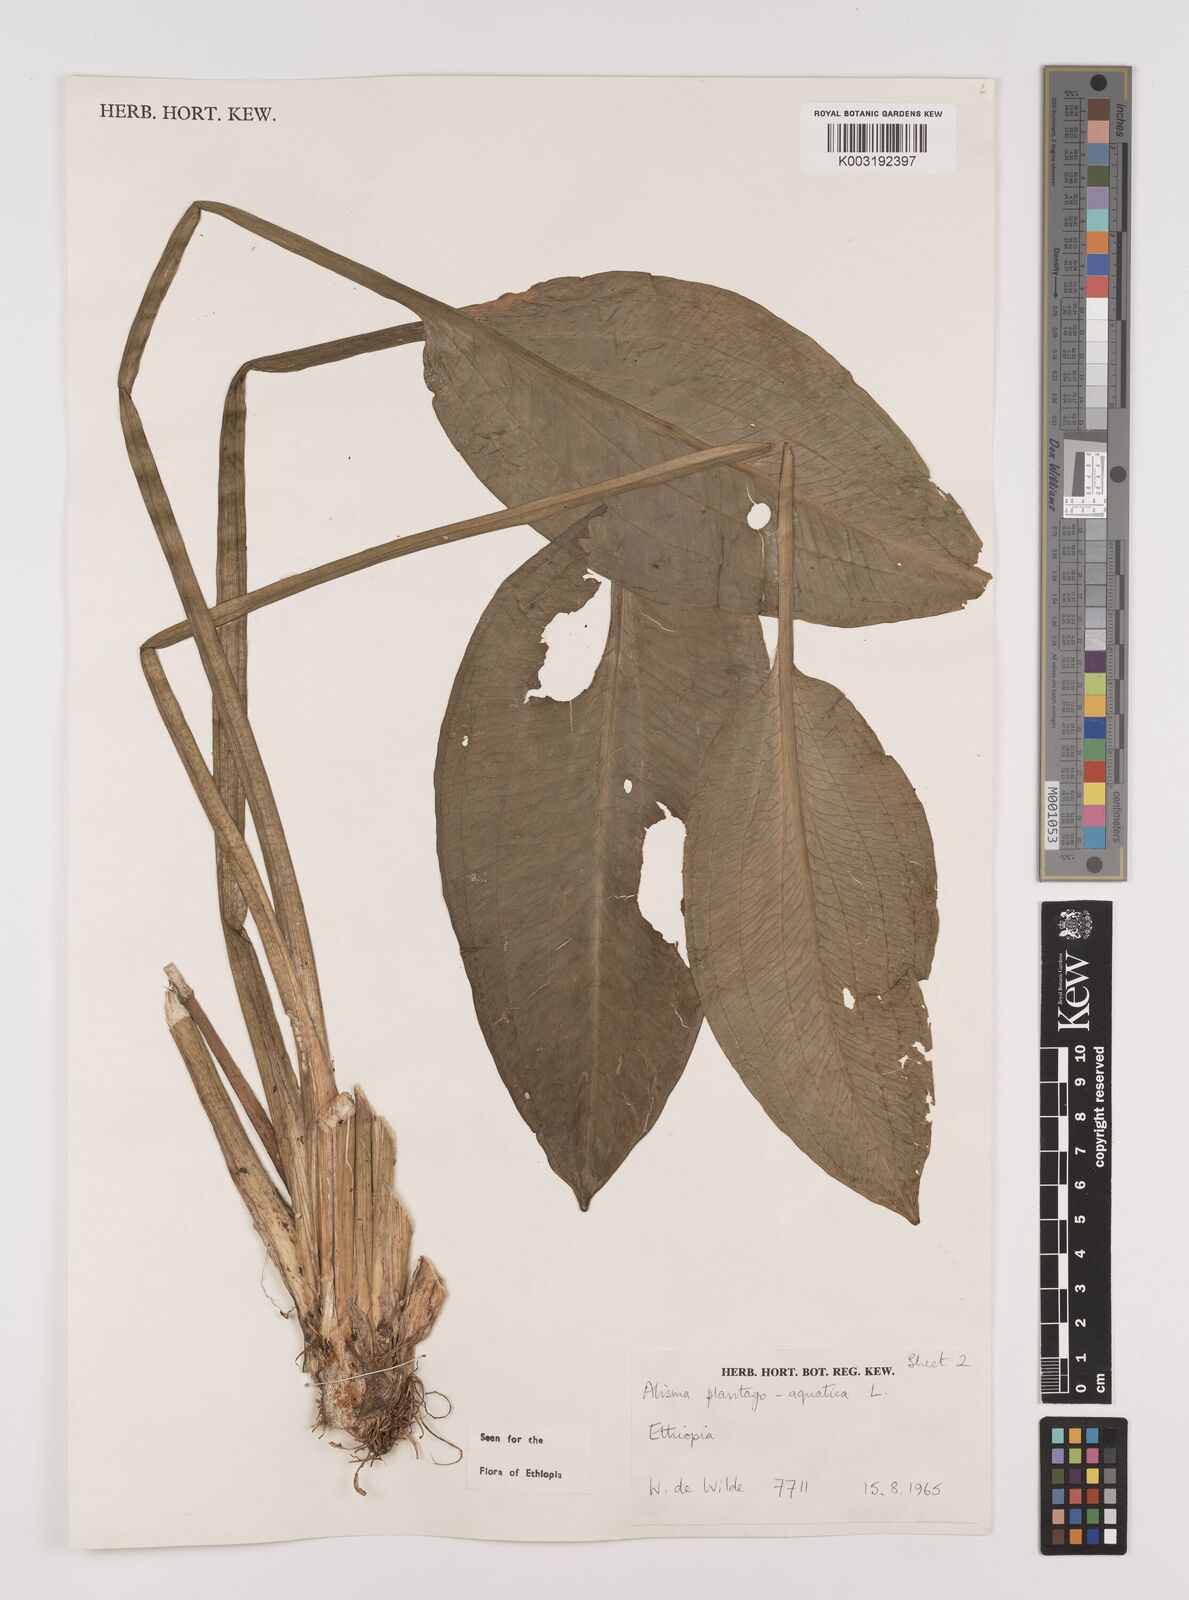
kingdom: Plantae
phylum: Tracheophyta
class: Liliopsida
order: Alismatales
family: Alismataceae
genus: Alisma
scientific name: Alisma plantago-aquatica
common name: Water-plantain
